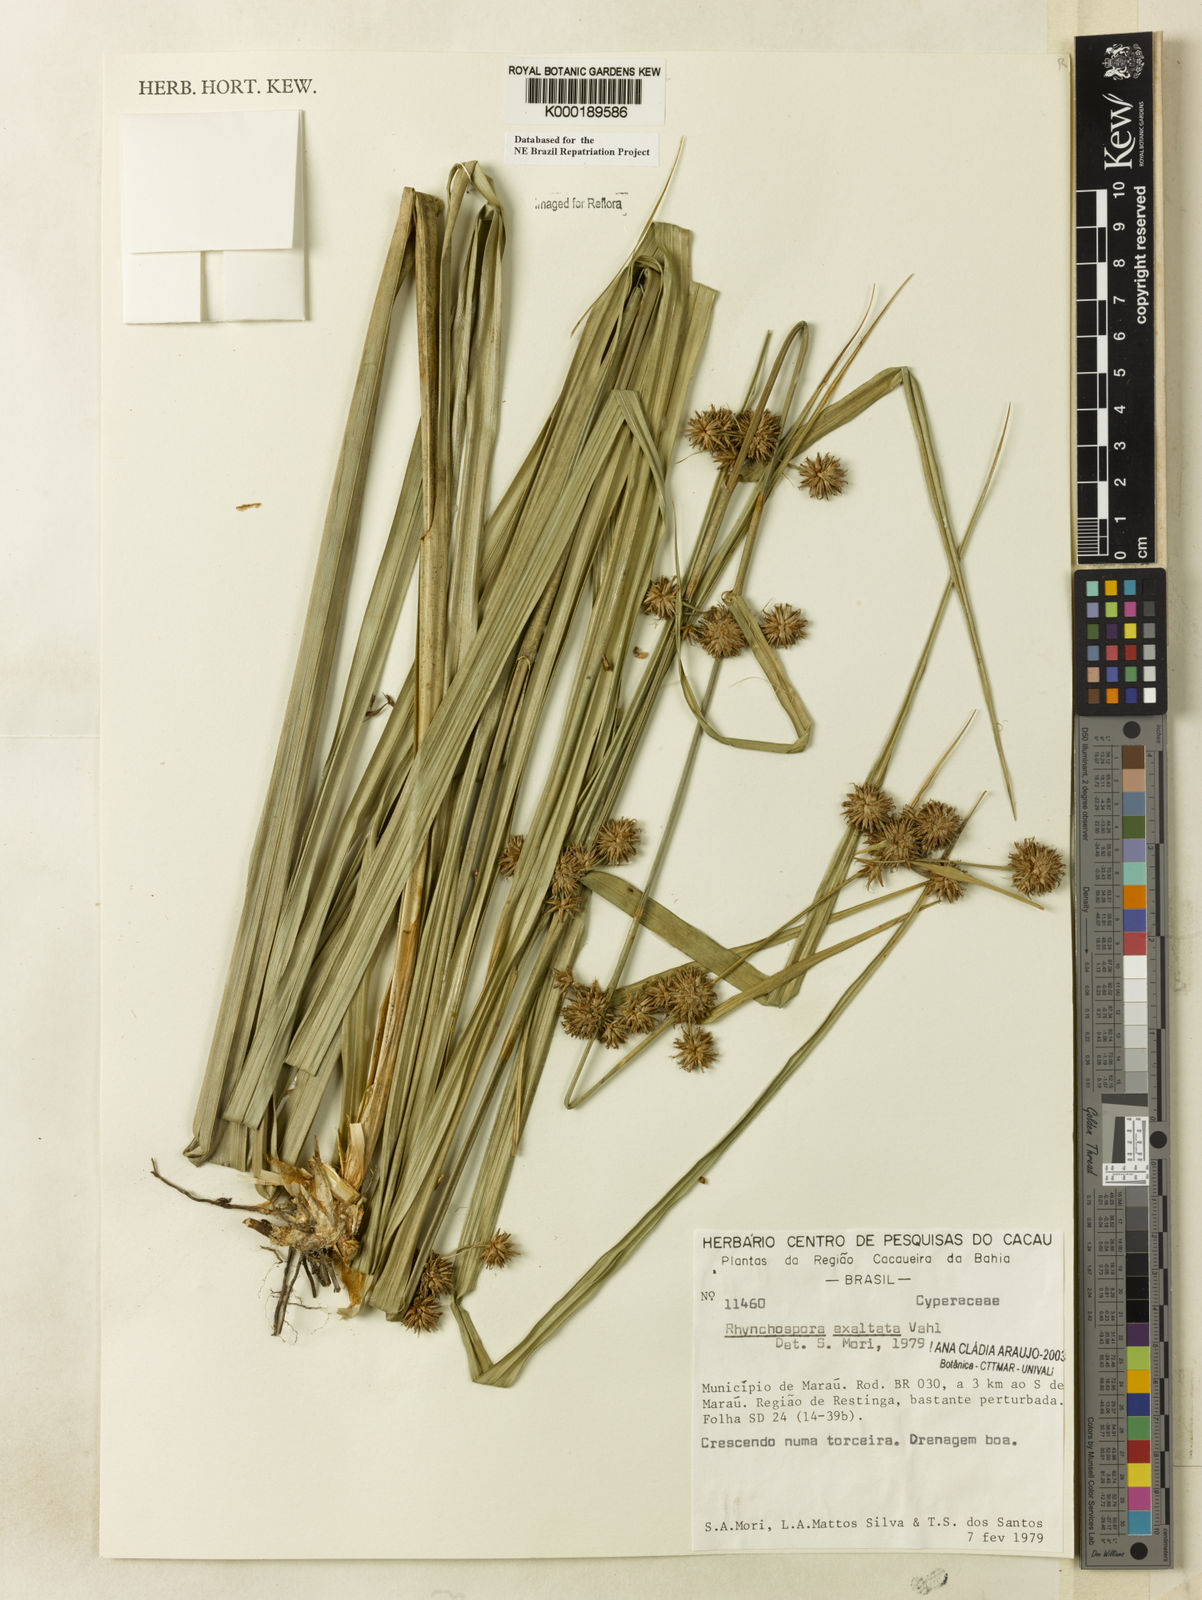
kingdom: Plantae
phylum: Tracheophyta
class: Liliopsida
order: Poales
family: Cyperaceae
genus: Rhynchospora
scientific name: Rhynchospora exaltata
